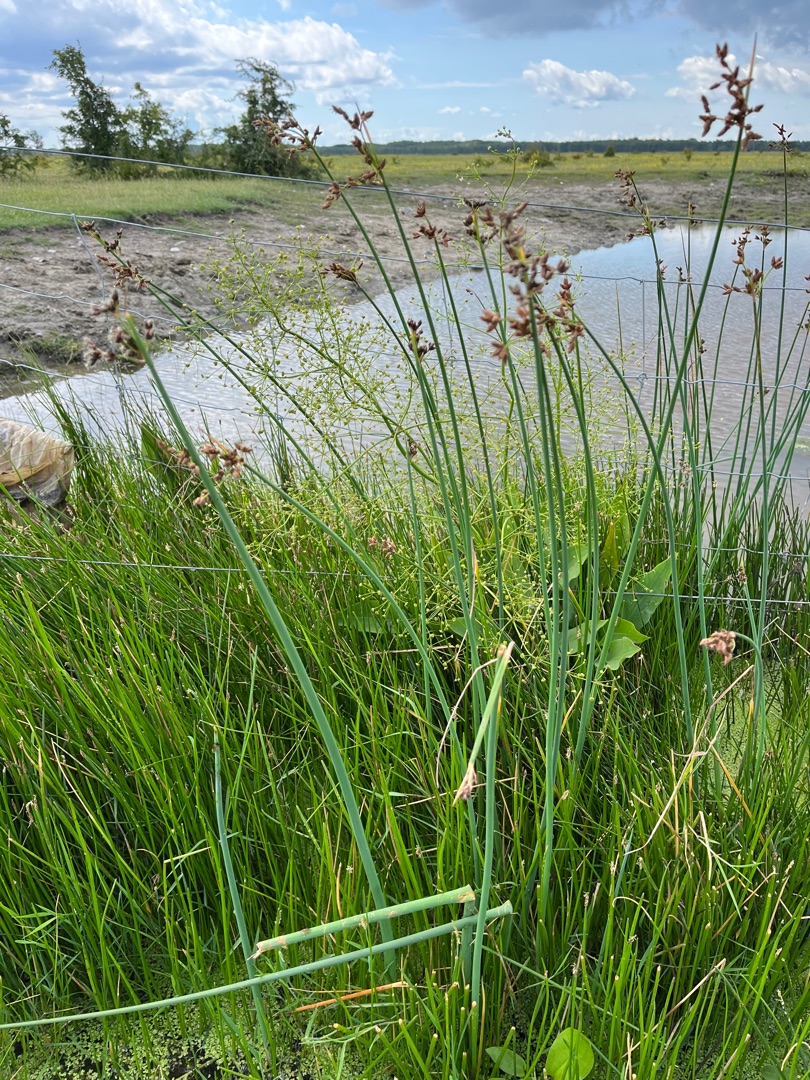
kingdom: Plantae
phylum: Tracheophyta
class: Liliopsida
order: Poales
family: Cyperaceae
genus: Schoenoplectus
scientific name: Schoenoplectus tabernaemontani
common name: Blågrøn kogleaks
